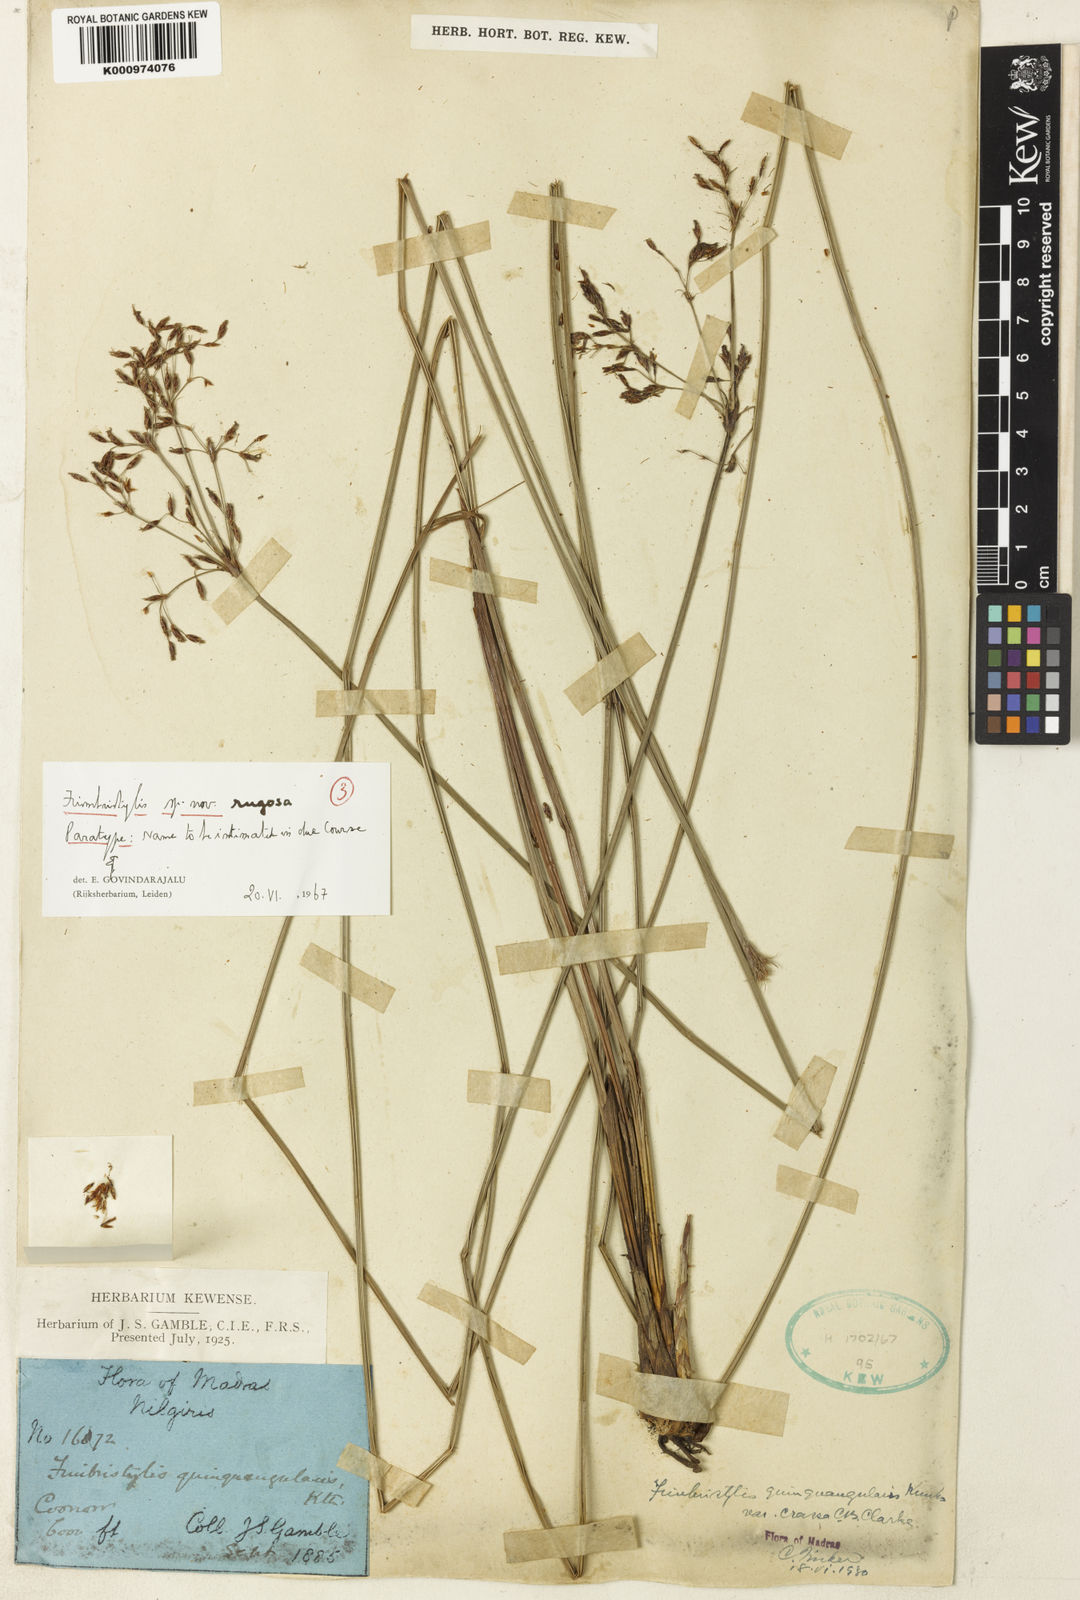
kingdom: Plantae
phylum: Tracheophyta
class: Liliopsida
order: Poales
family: Cyperaceae
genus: Fimbristylis
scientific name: Fimbristylis rugosa
